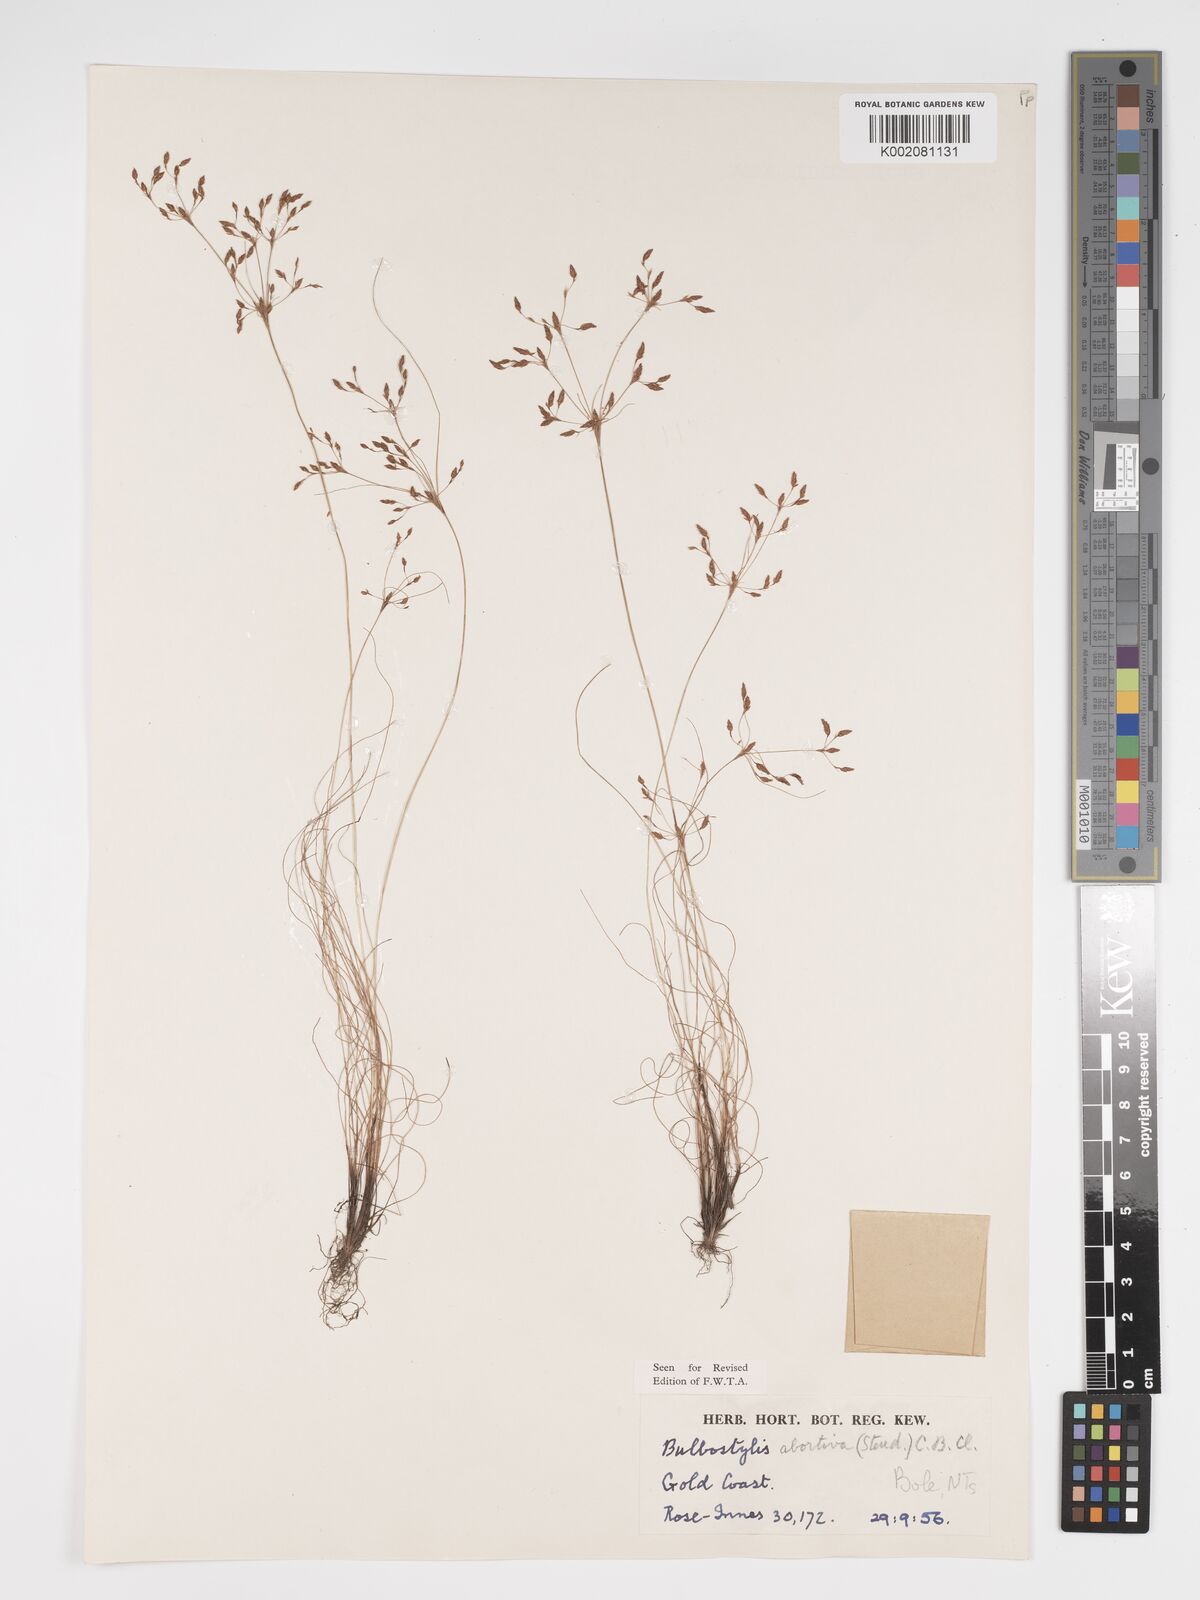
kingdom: Plantae
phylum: Tracheophyta
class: Liliopsida
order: Poales
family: Cyperaceae
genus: Bulbostylis
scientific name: Bulbostylis abortiva
